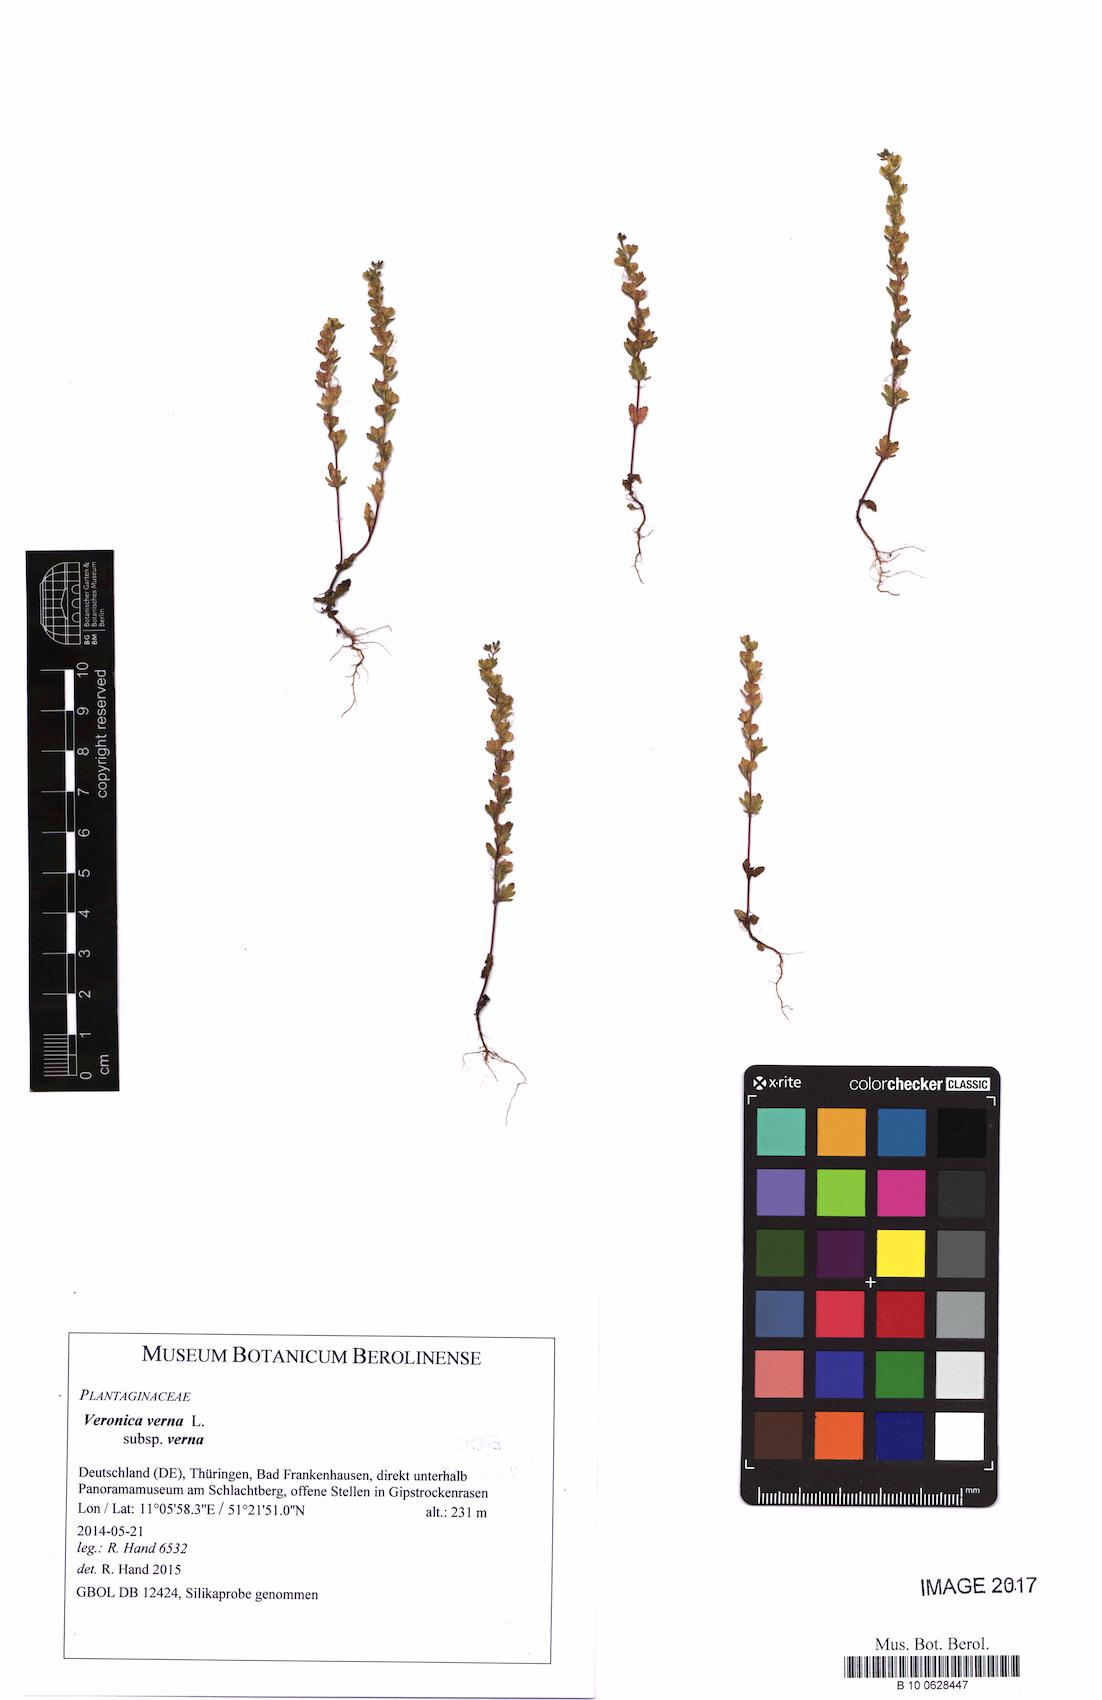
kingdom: Plantae
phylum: Tracheophyta
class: Magnoliopsida
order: Lamiales
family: Plantaginaceae
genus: Veronica
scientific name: Veronica verna
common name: Spring speedwell
